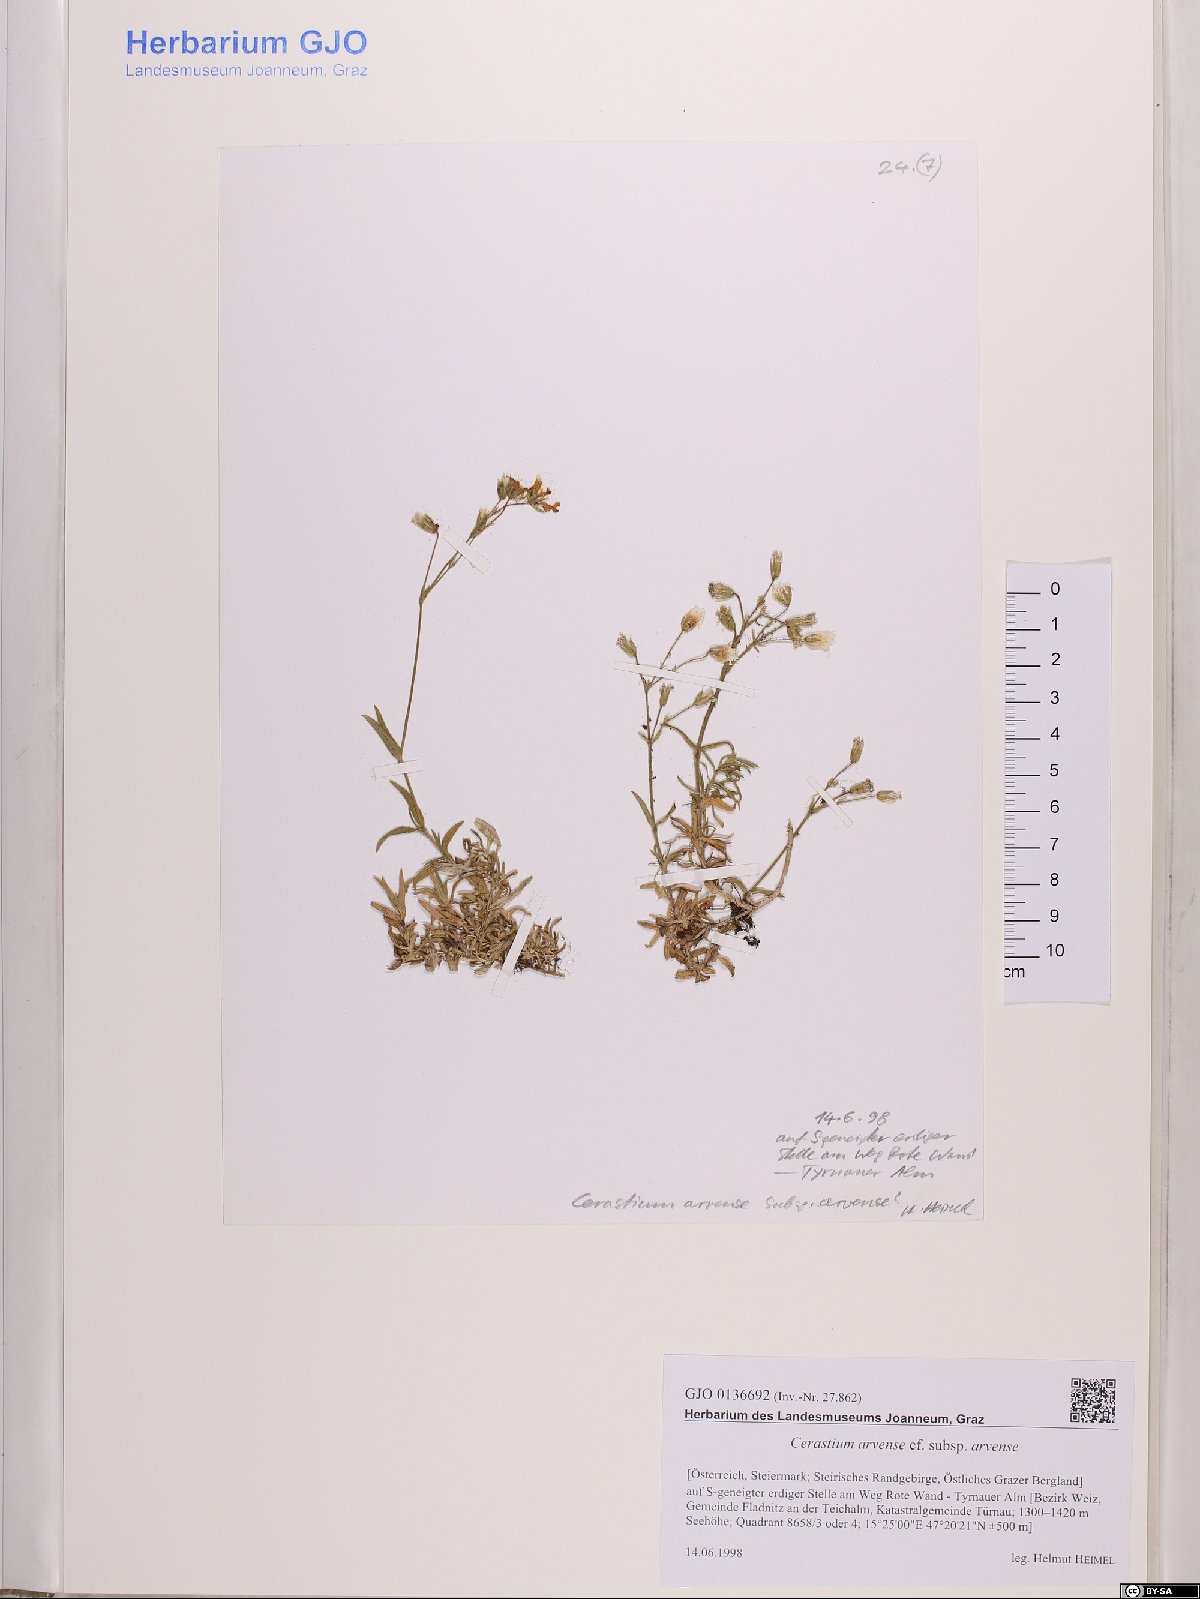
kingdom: Plantae
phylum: Tracheophyta
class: Magnoliopsida
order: Caryophyllales
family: Caryophyllaceae
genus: Cerastium
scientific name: Cerastium arvense
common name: Field mouse-ear
